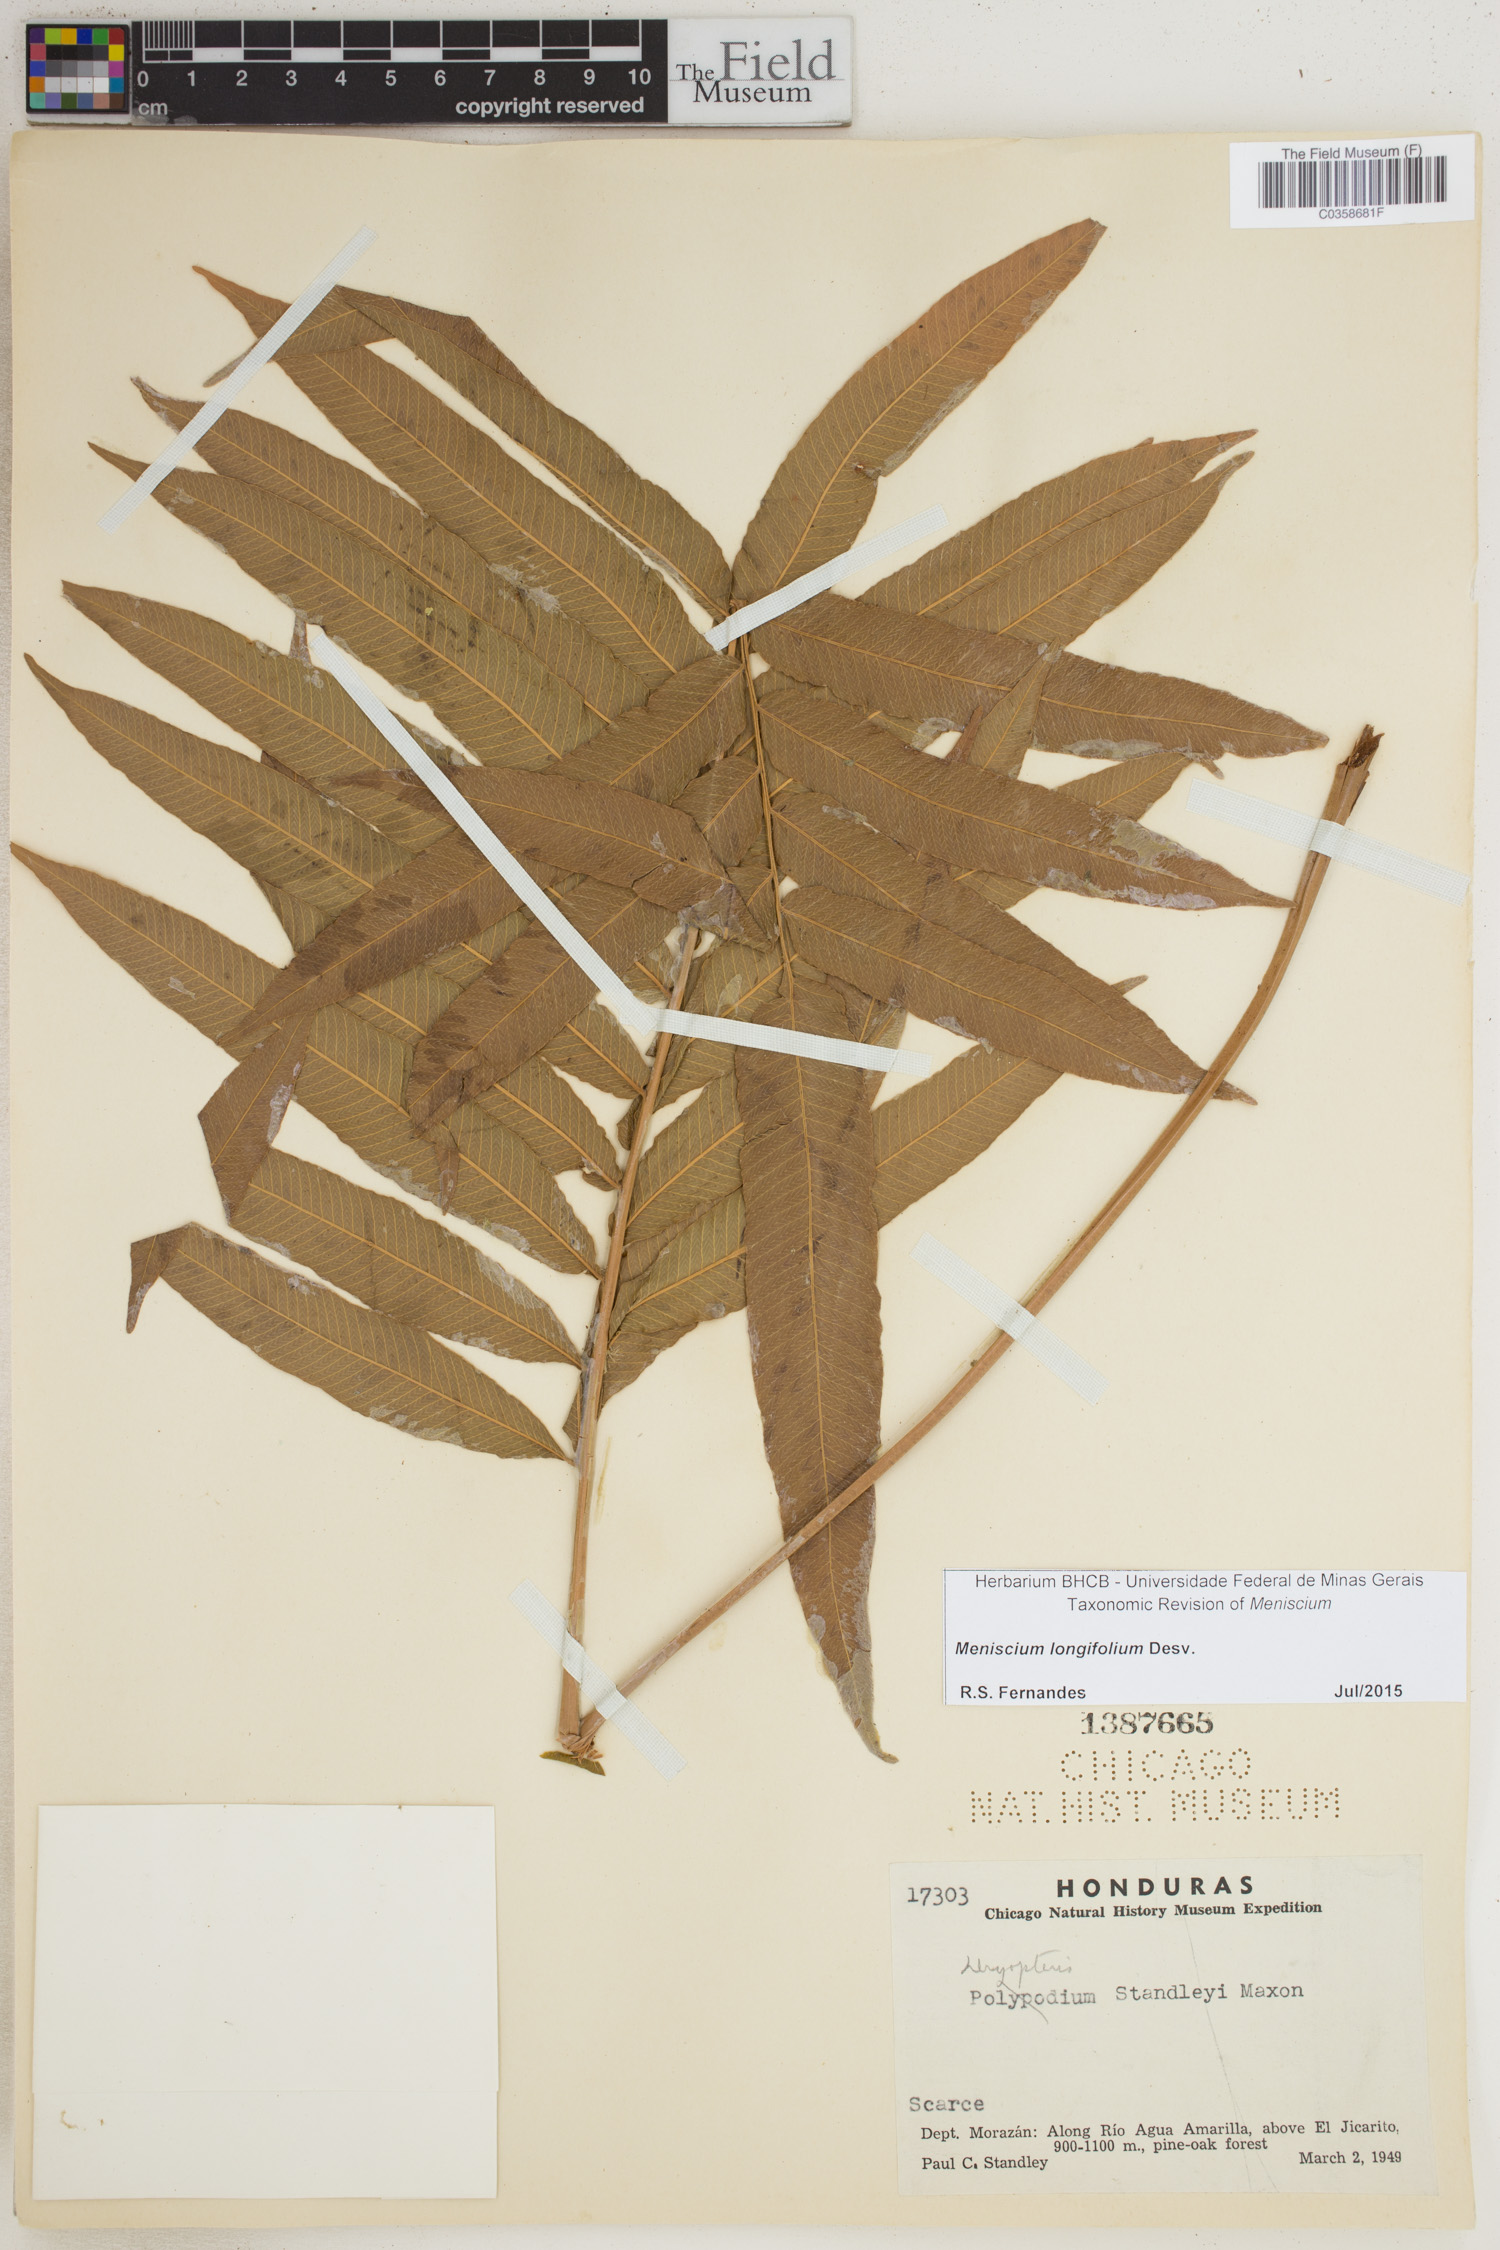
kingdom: Plantae
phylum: Tracheophyta
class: Polypodiopsida
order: Polypodiales
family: Thelypteridaceae
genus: Meniscium
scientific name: Meniscium longifolium
